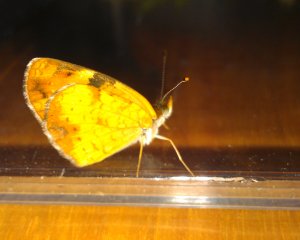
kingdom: Animalia
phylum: Arthropoda
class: Insecta
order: Lepidoptera
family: Nymphalidae
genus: Phyciodes
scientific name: Phyciodes tharos
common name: Northern Crescent
